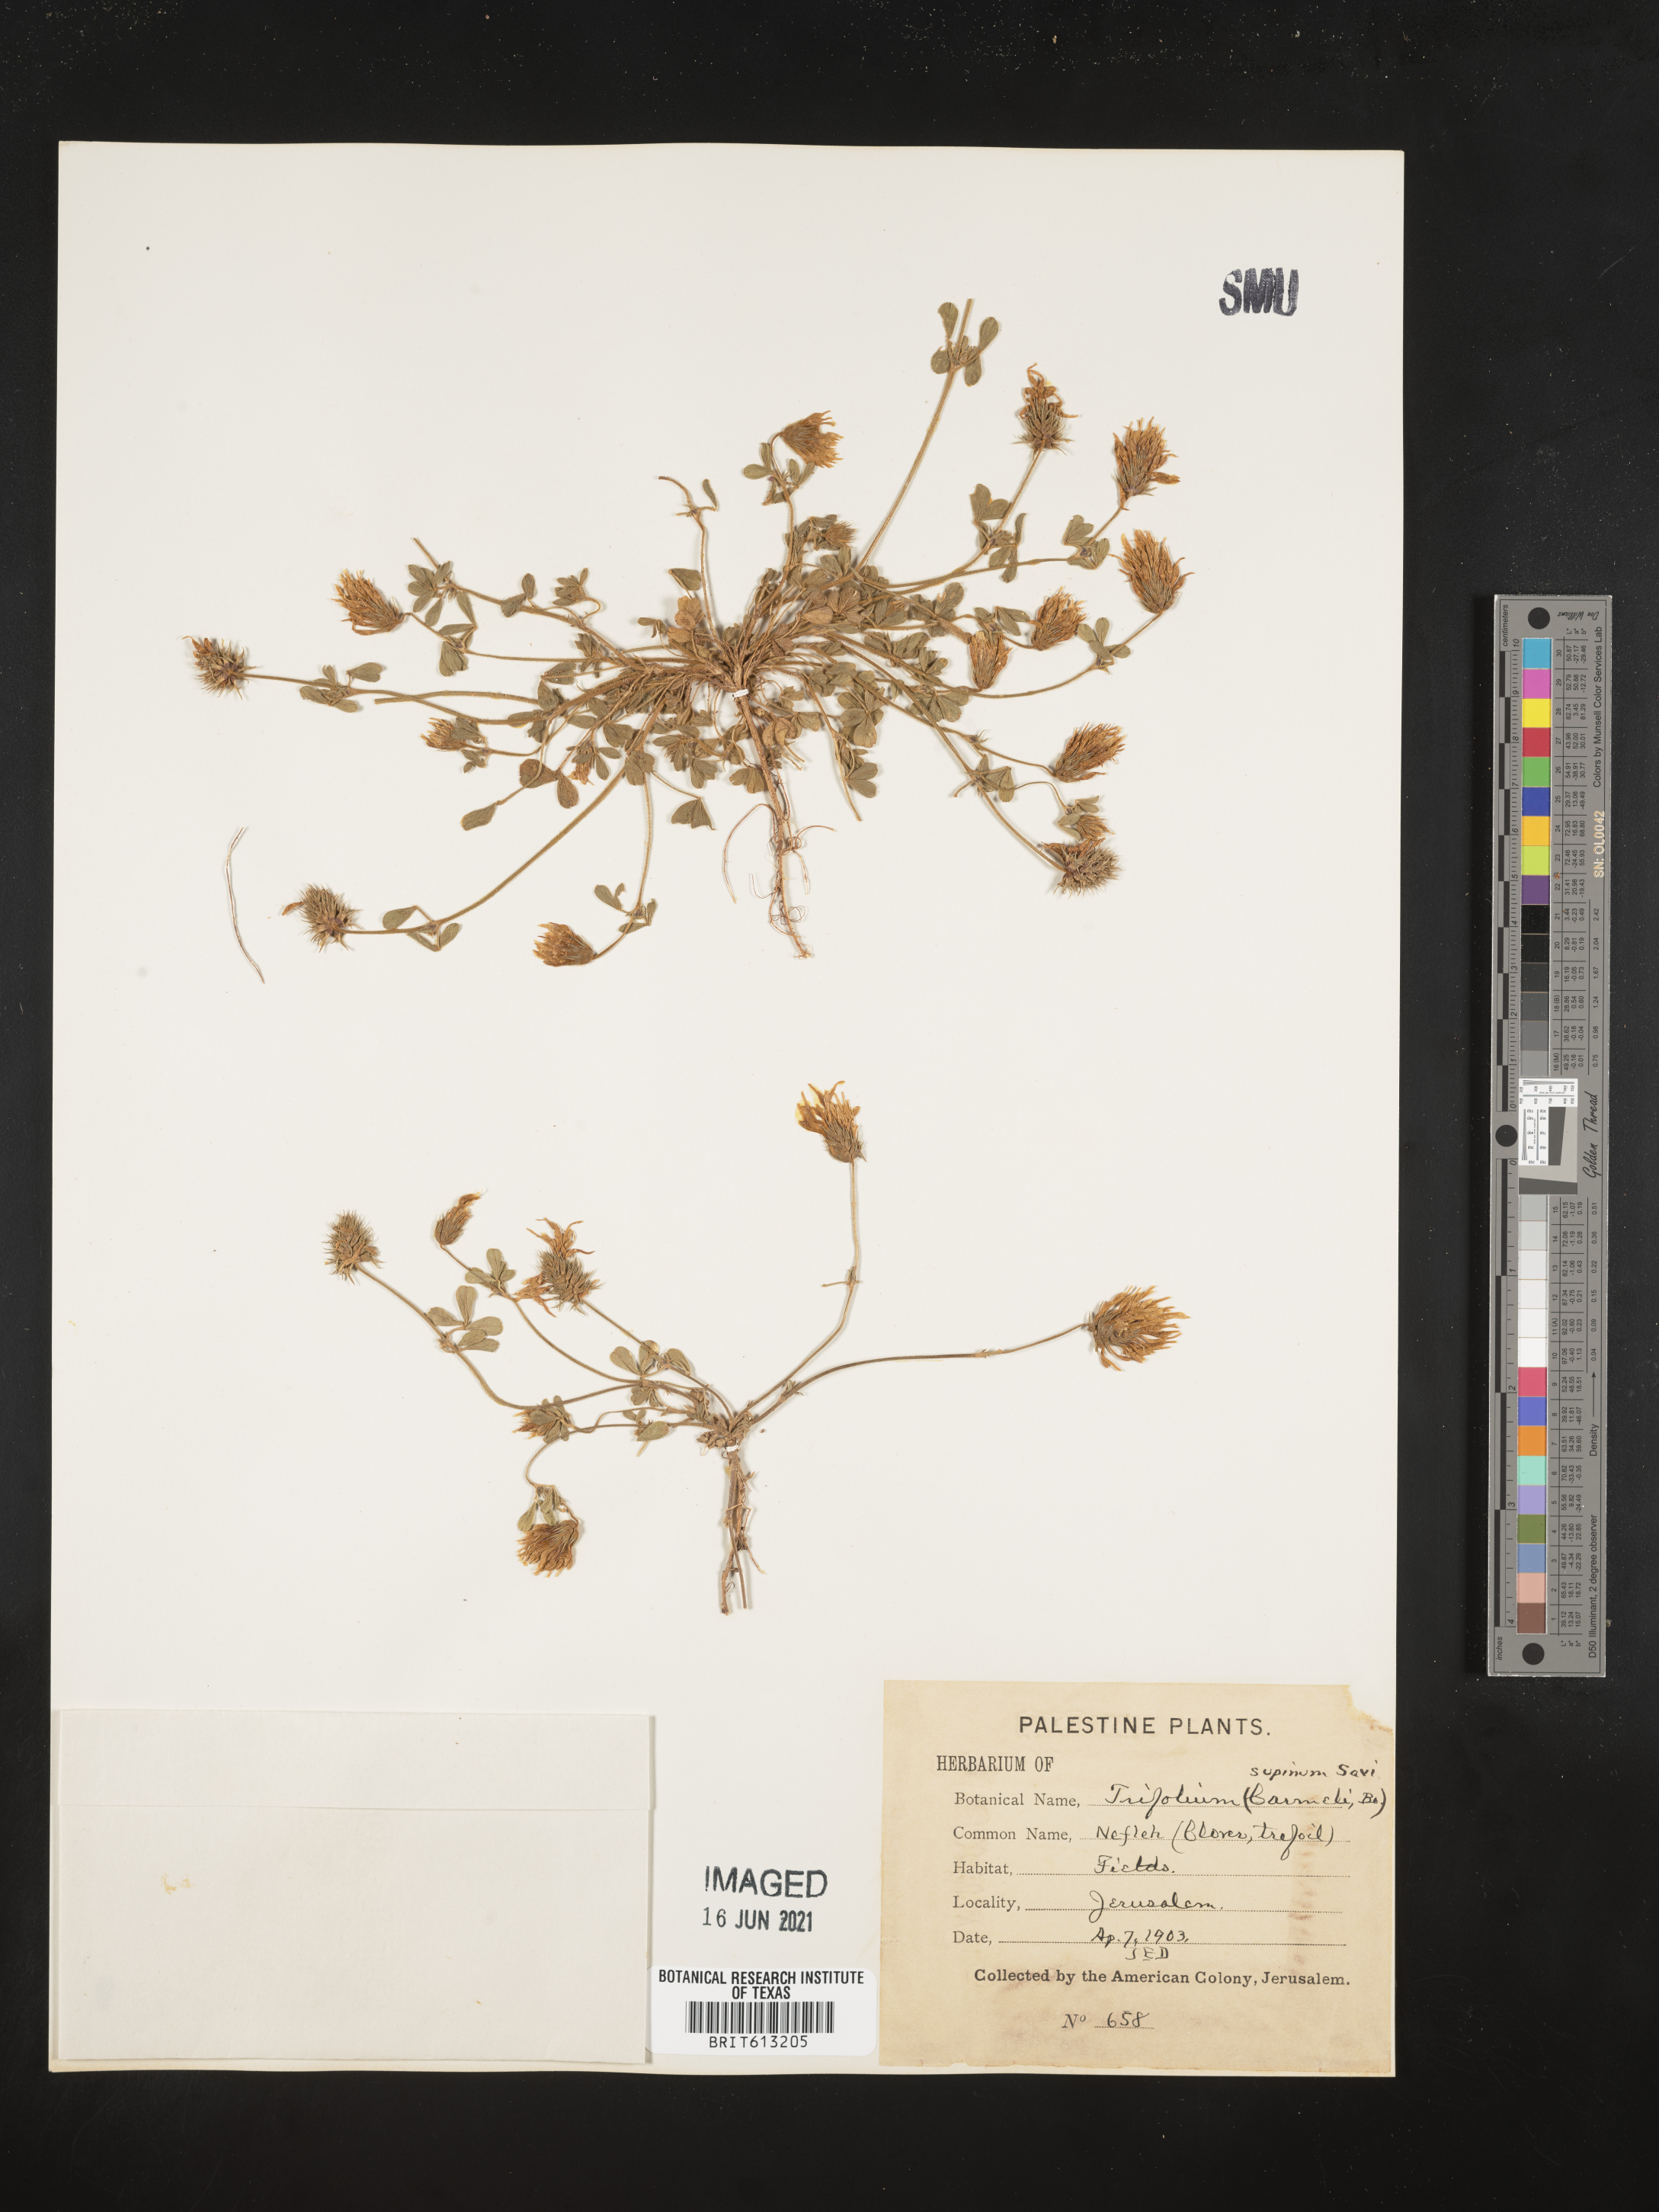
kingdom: Plantae
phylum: Tracheophyta
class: Magnoliopsida
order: Fabales
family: Fabaceae
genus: Trifolium
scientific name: Trifolium echinatum
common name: Hedgehog clover
